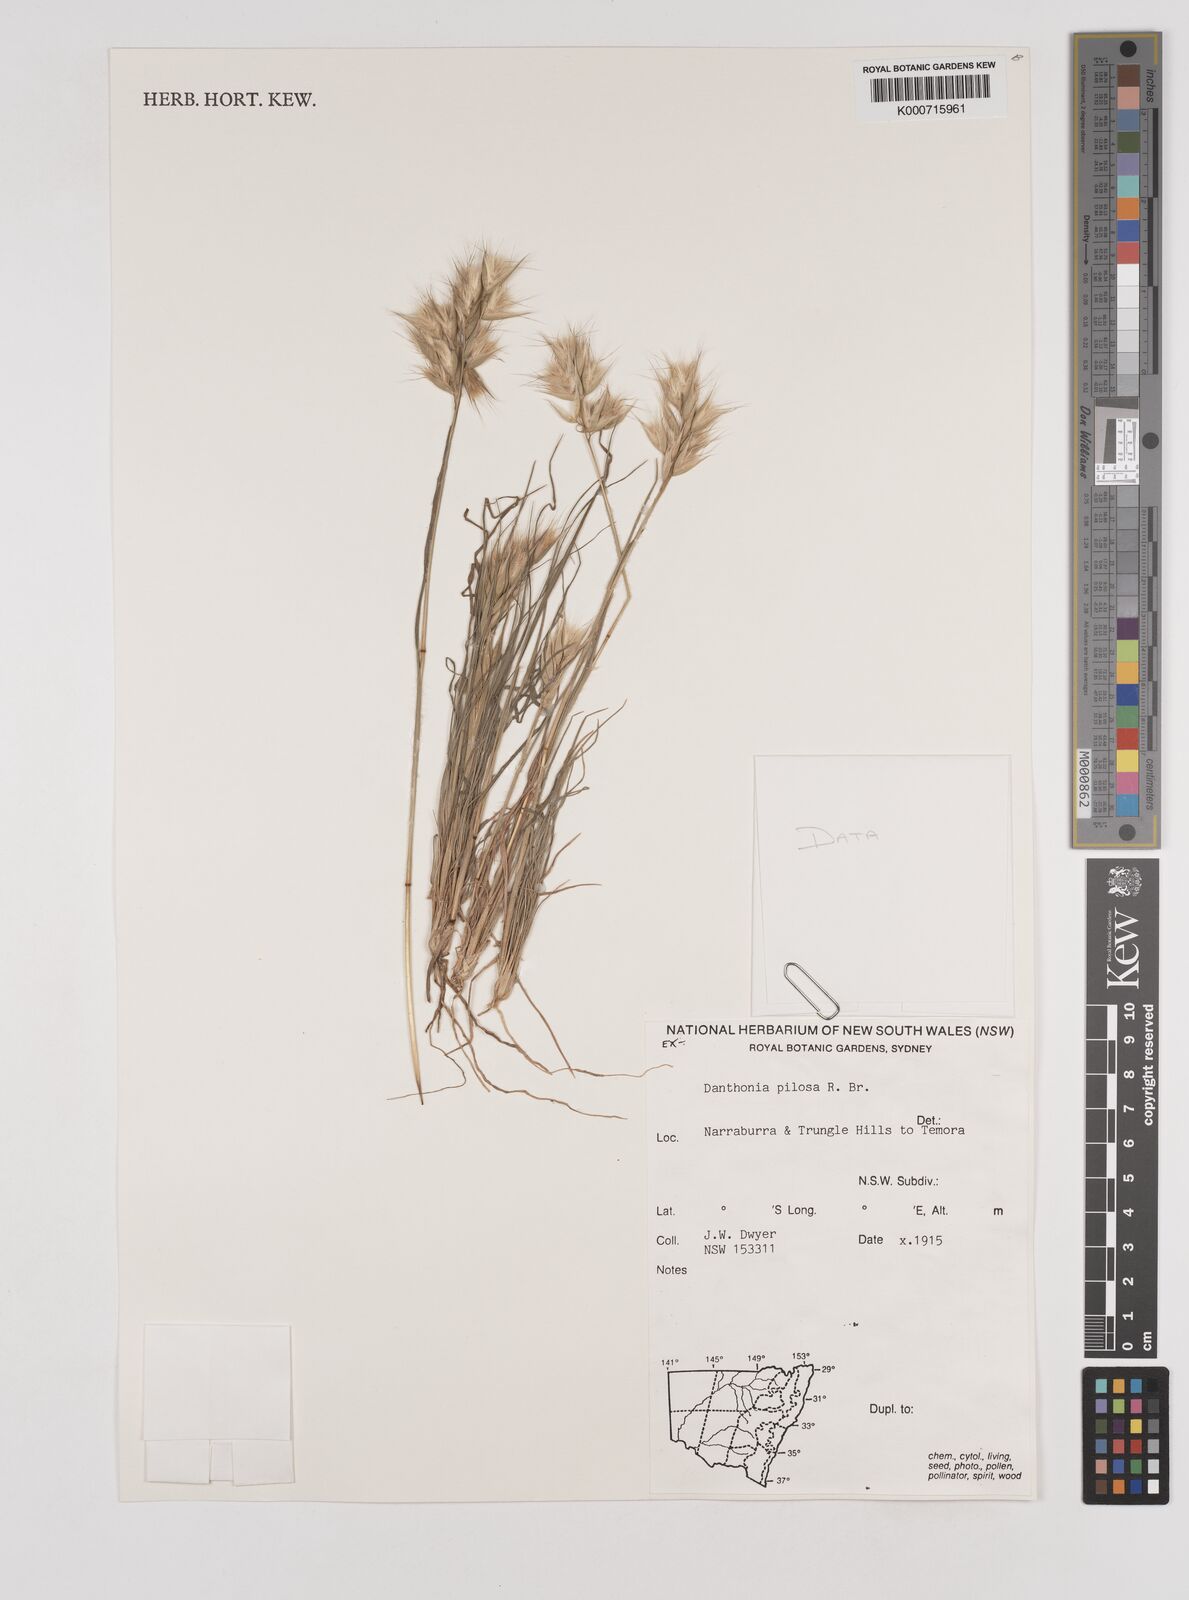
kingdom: Plantae
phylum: Tracheophyta
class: Liliopsida
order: Poales
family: Poaceae
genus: Rytidosperma
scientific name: Rytidosperma pilosum
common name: Hairy wallaby grass
